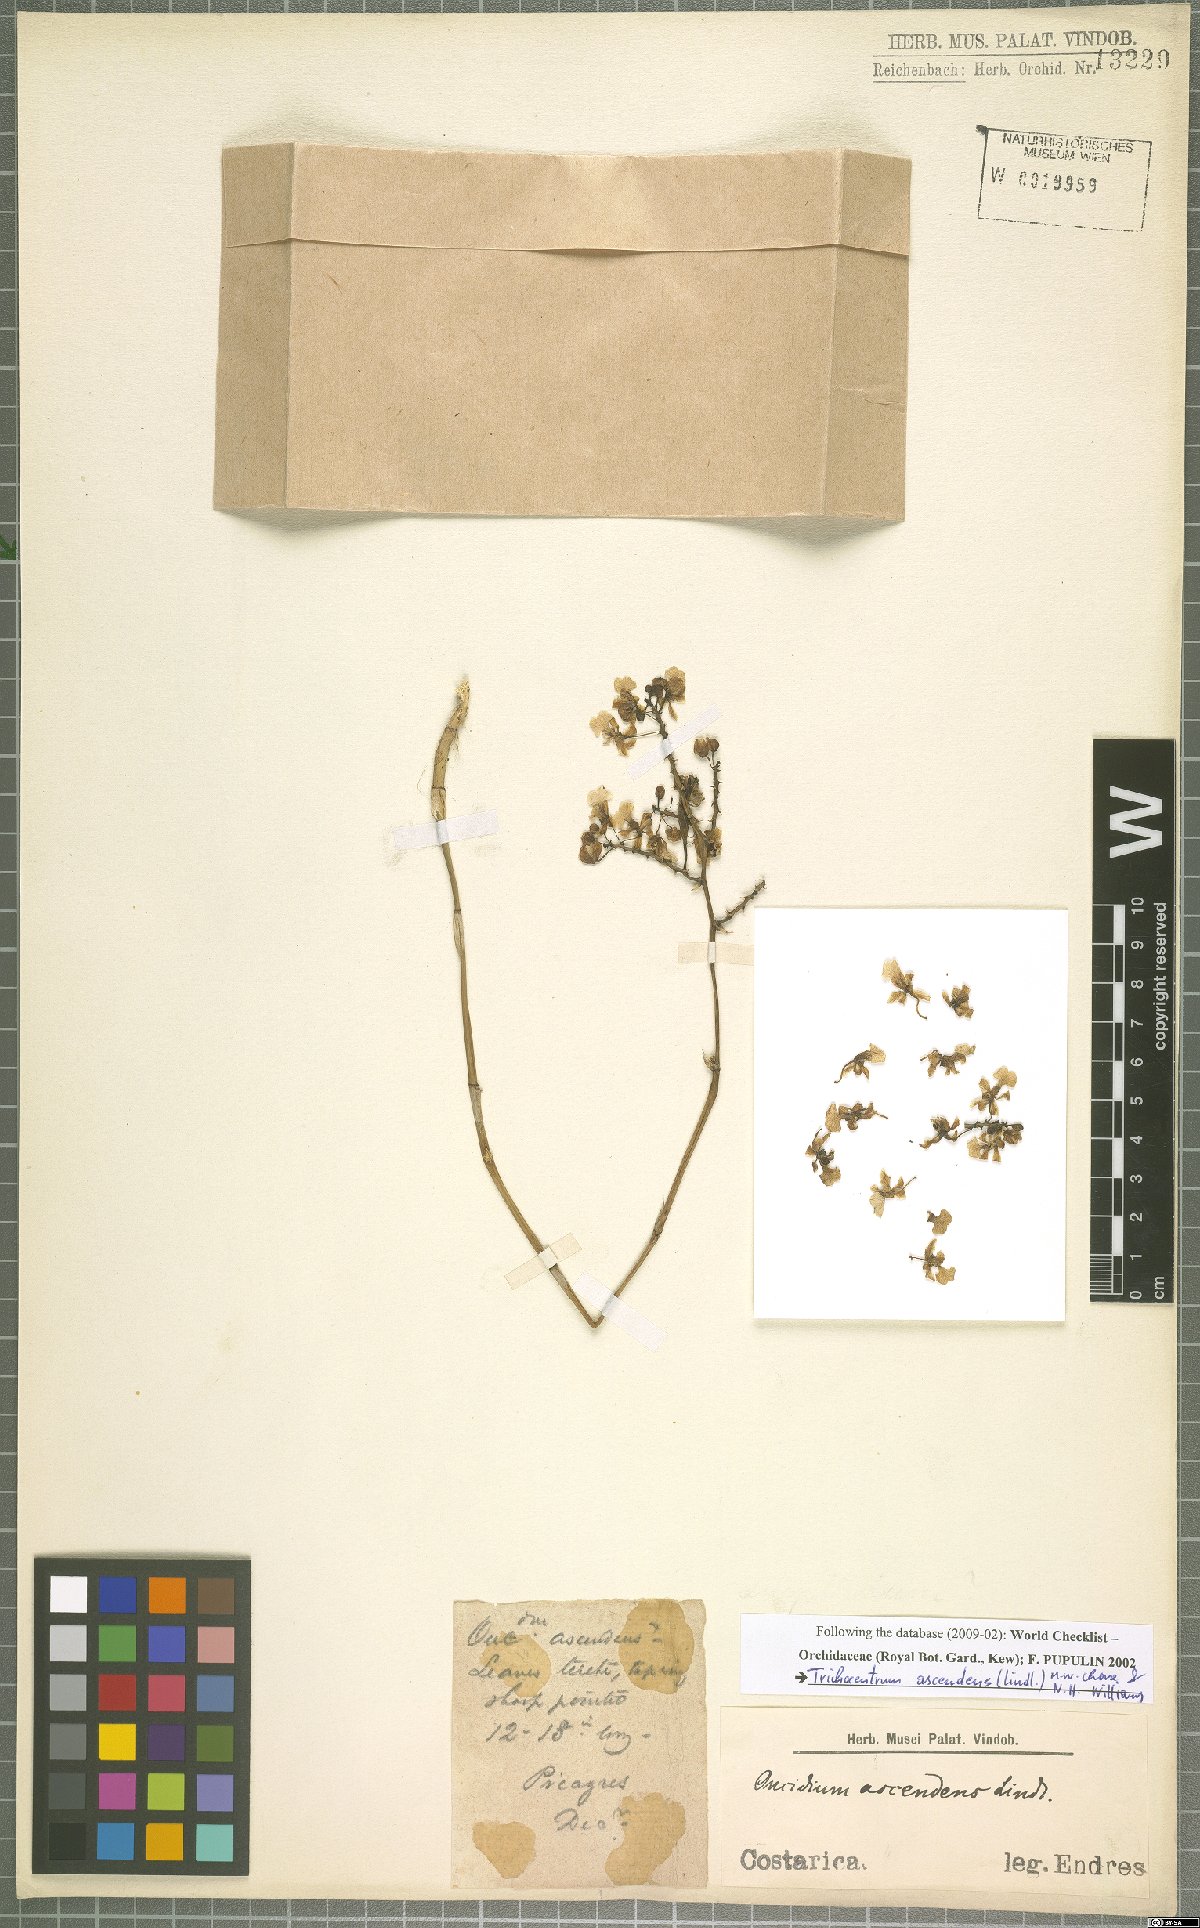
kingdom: Plantae
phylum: Tracheophyta
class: Liliopsida
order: Asparagales
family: Orchidaceae
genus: Trichocentrum
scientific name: Trichocentrum ascendens
